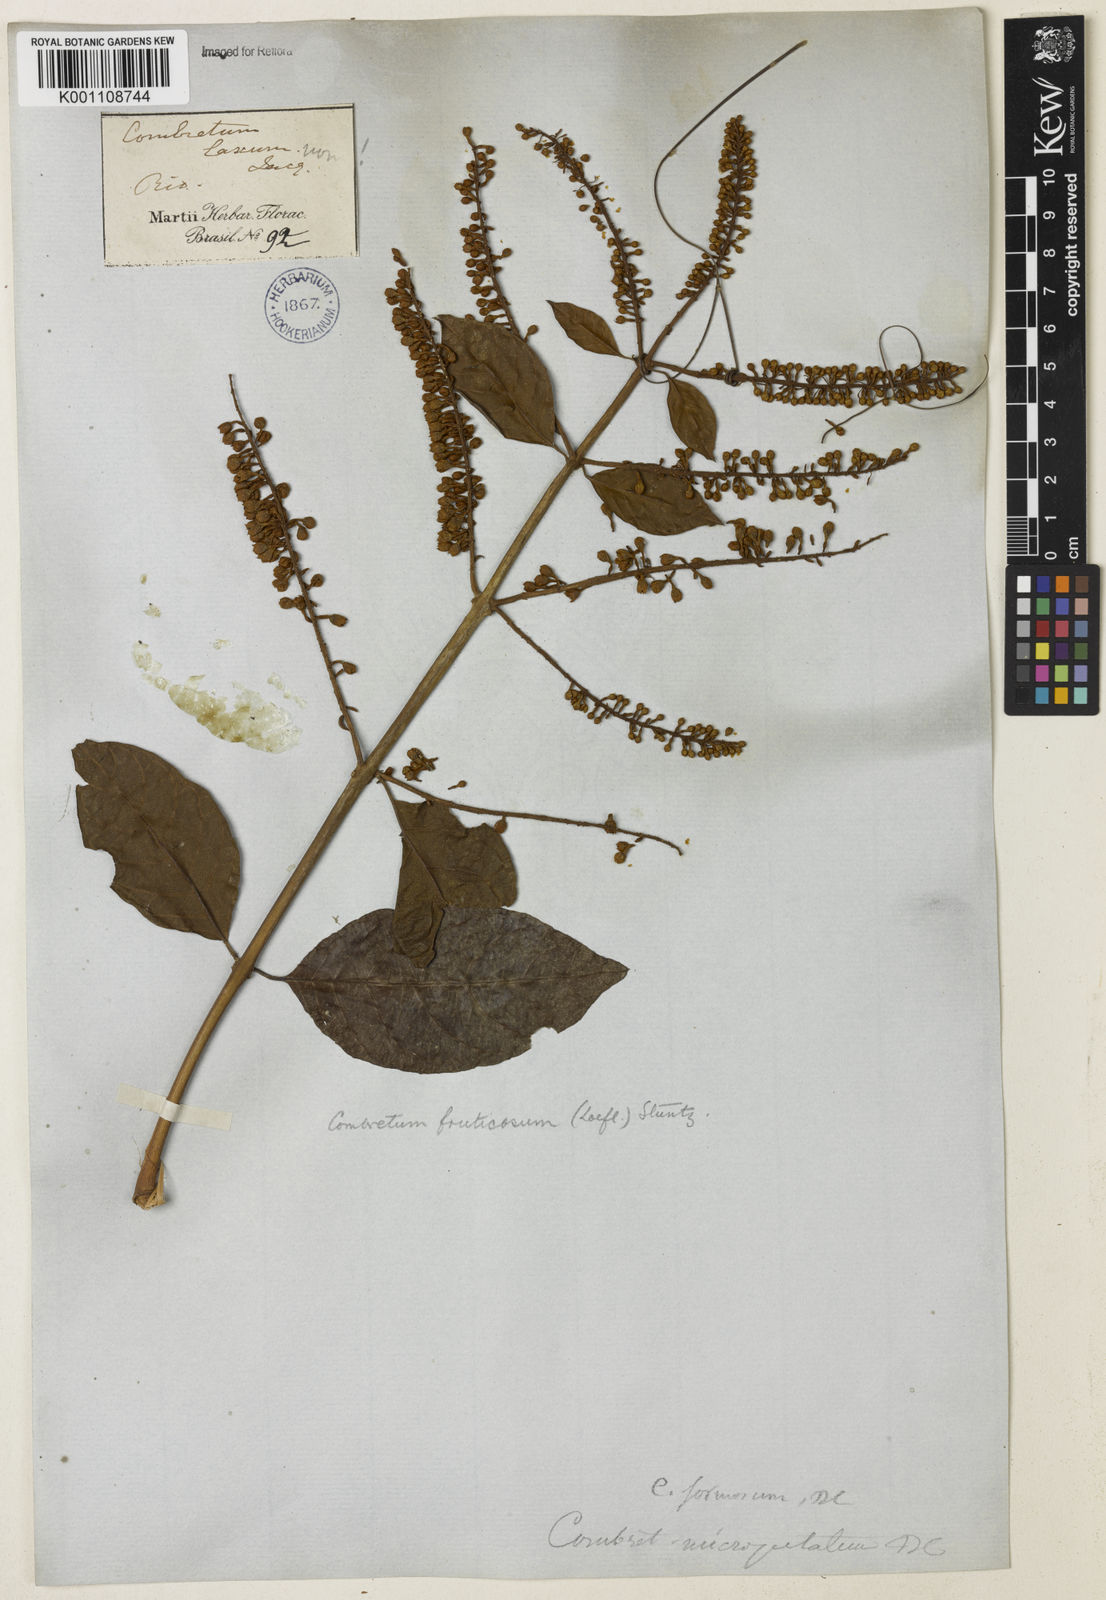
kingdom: Plantae
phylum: Tracheophyta
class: Magnoliopsida
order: Myrtales
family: Combretaceae
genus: Combretum
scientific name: Combretum fruticosum
